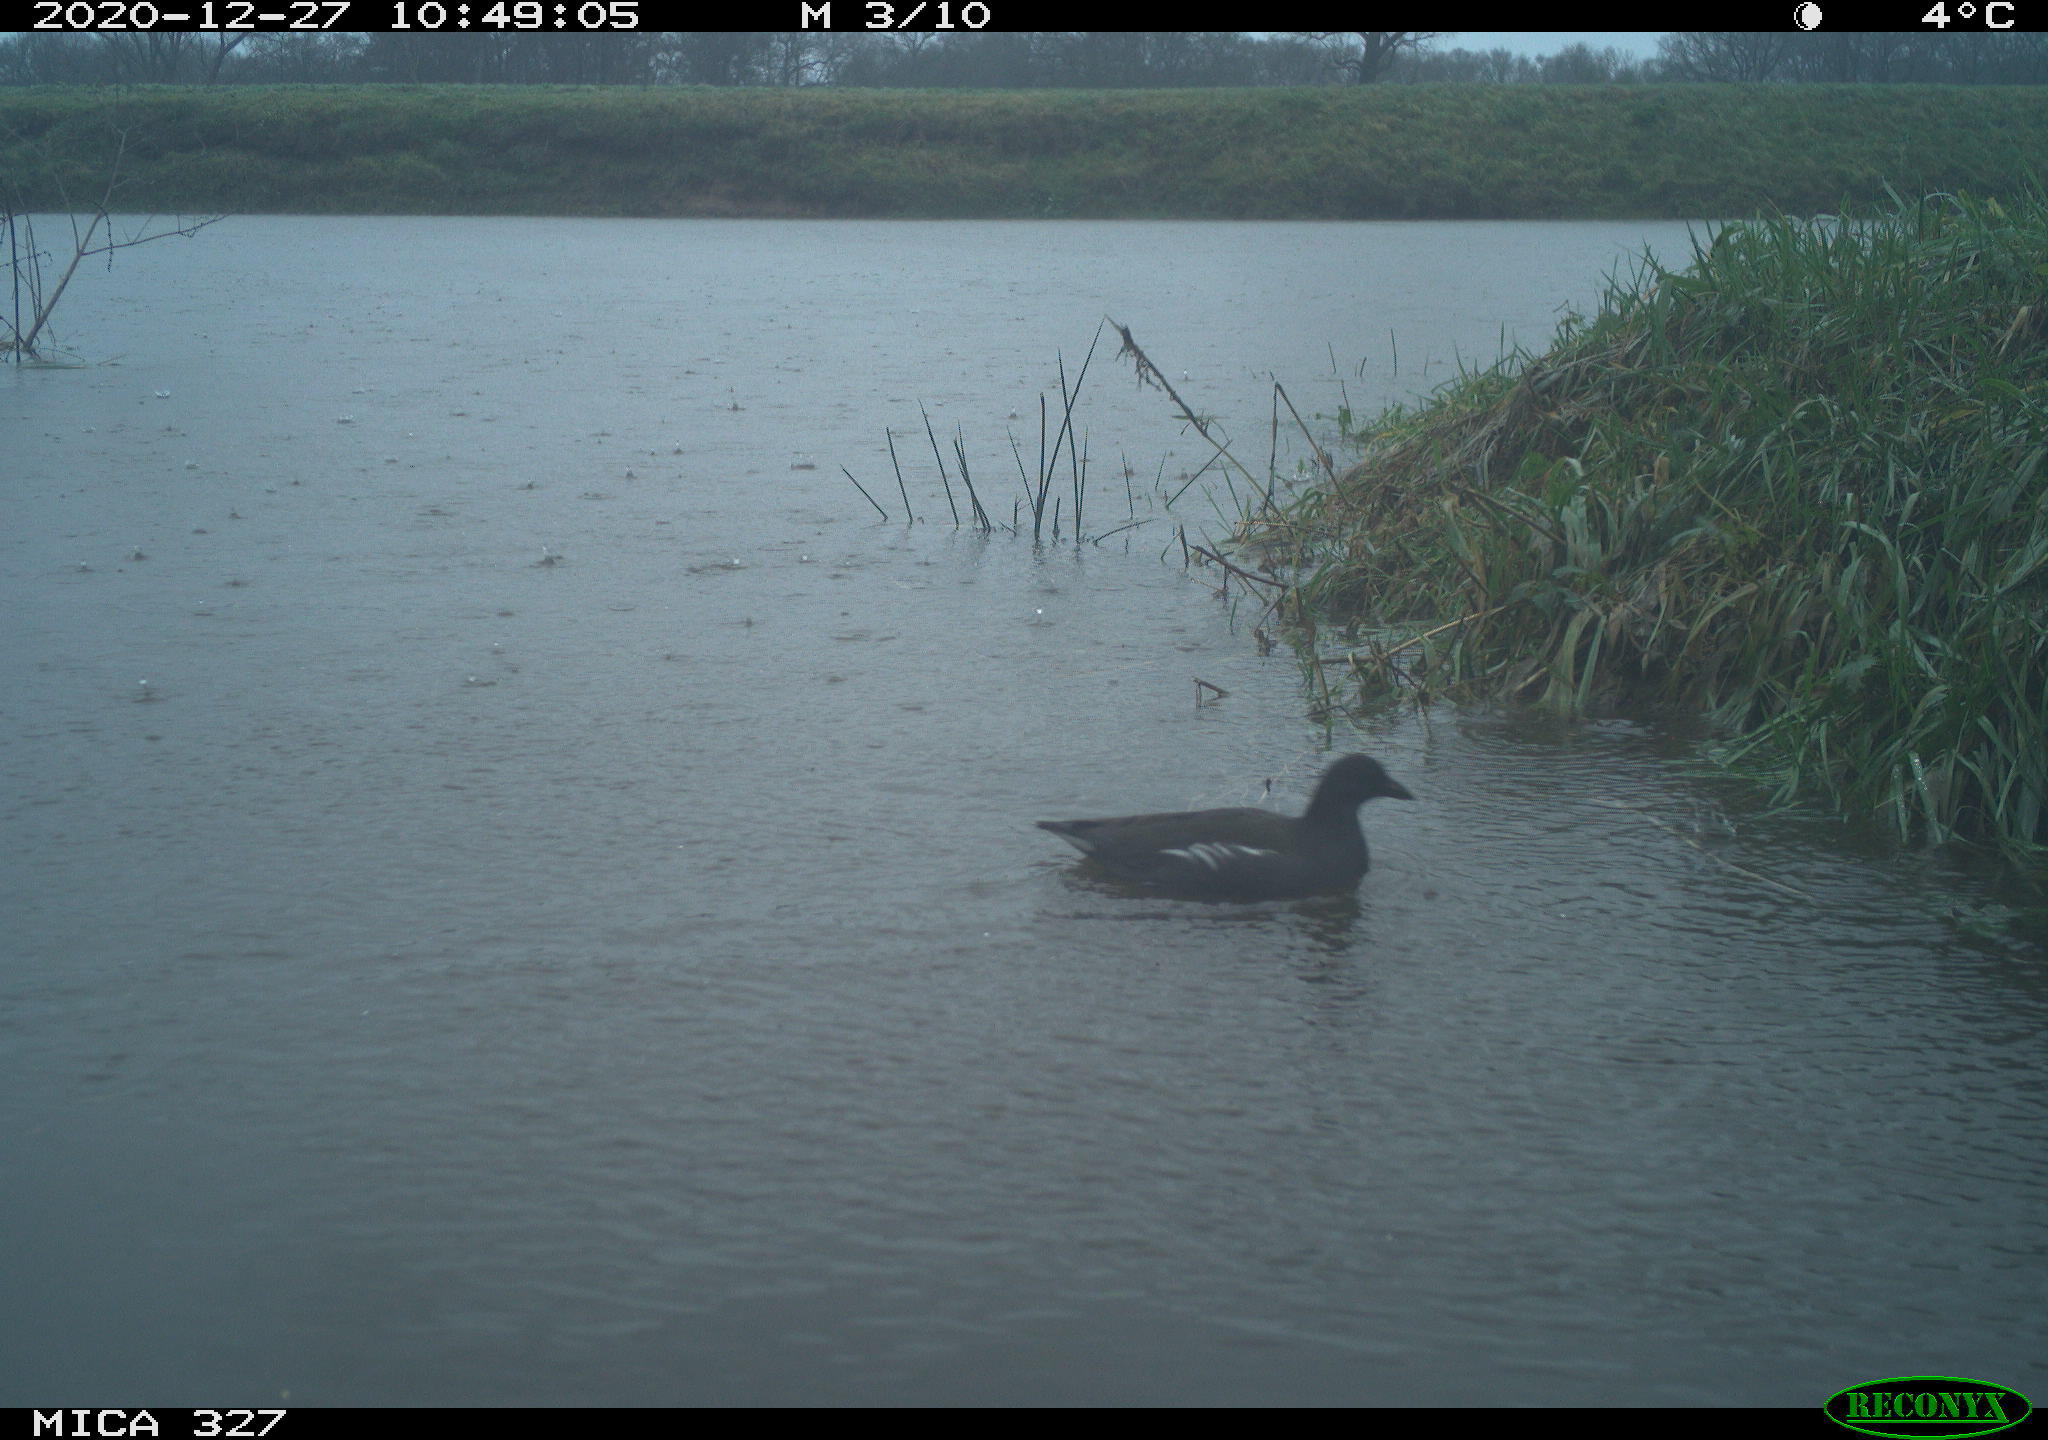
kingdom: Animalia
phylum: Chordata
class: Aves
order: Gruiformes
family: Rallidae
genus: Gallinula
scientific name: Gallinula chloropus
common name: Common moorhen
